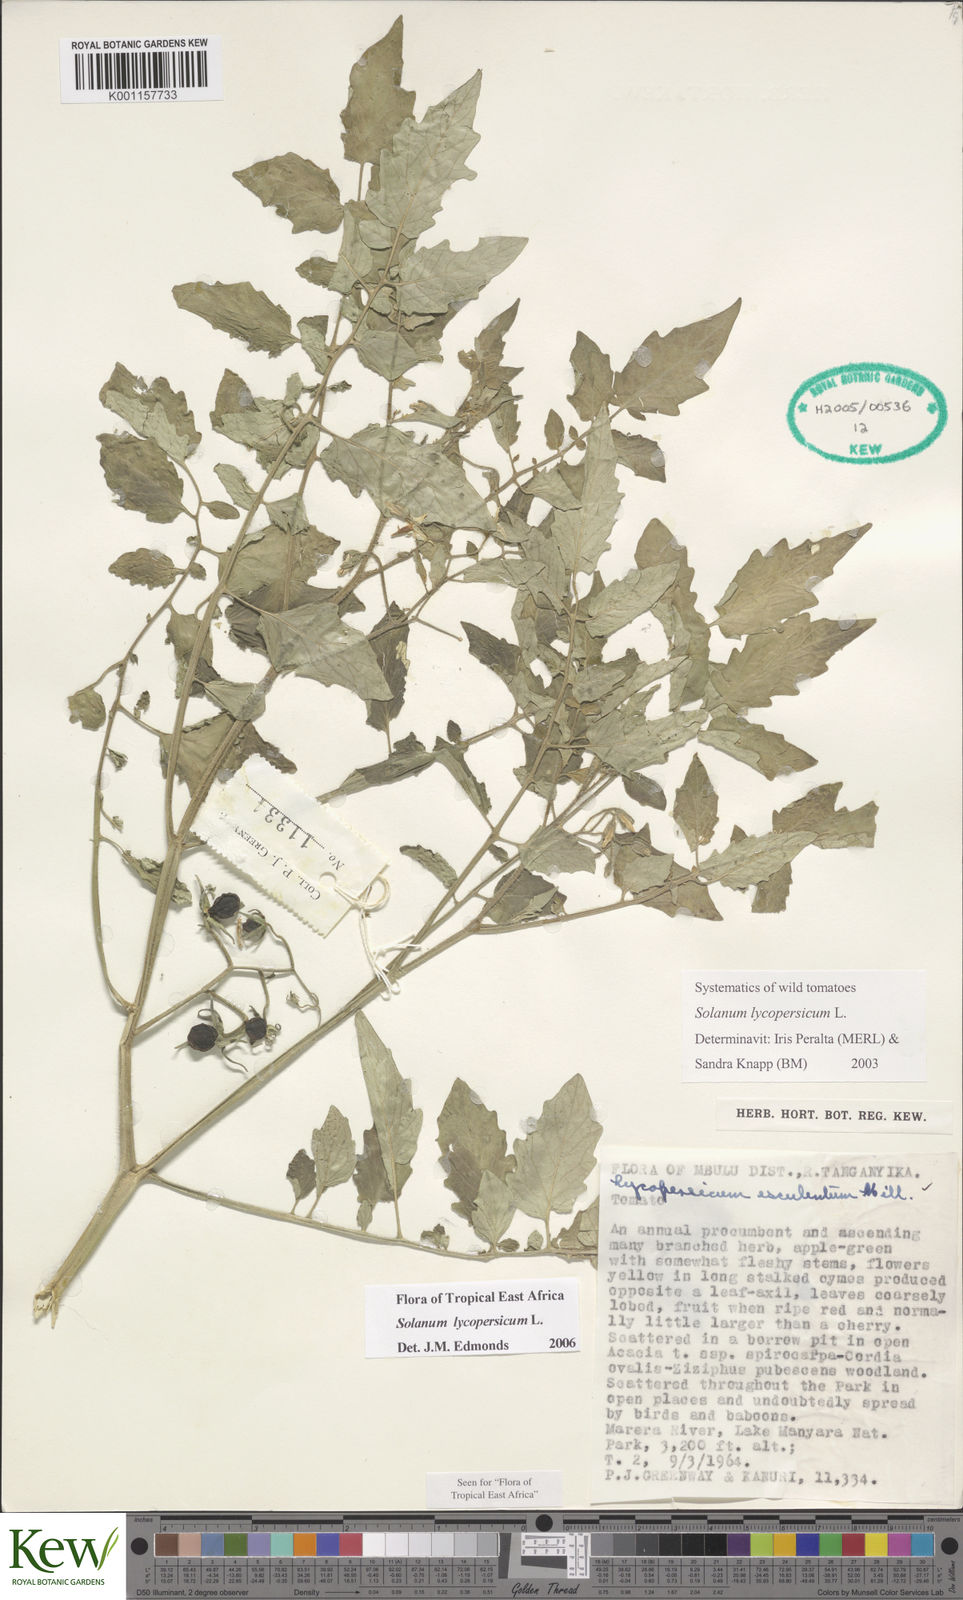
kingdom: Plantae
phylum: Tracheophyta
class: Magnoliopsida
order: Solanales
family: Solanaceae
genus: Solanum
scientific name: Solanum lycopersicum
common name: Garden tomato
